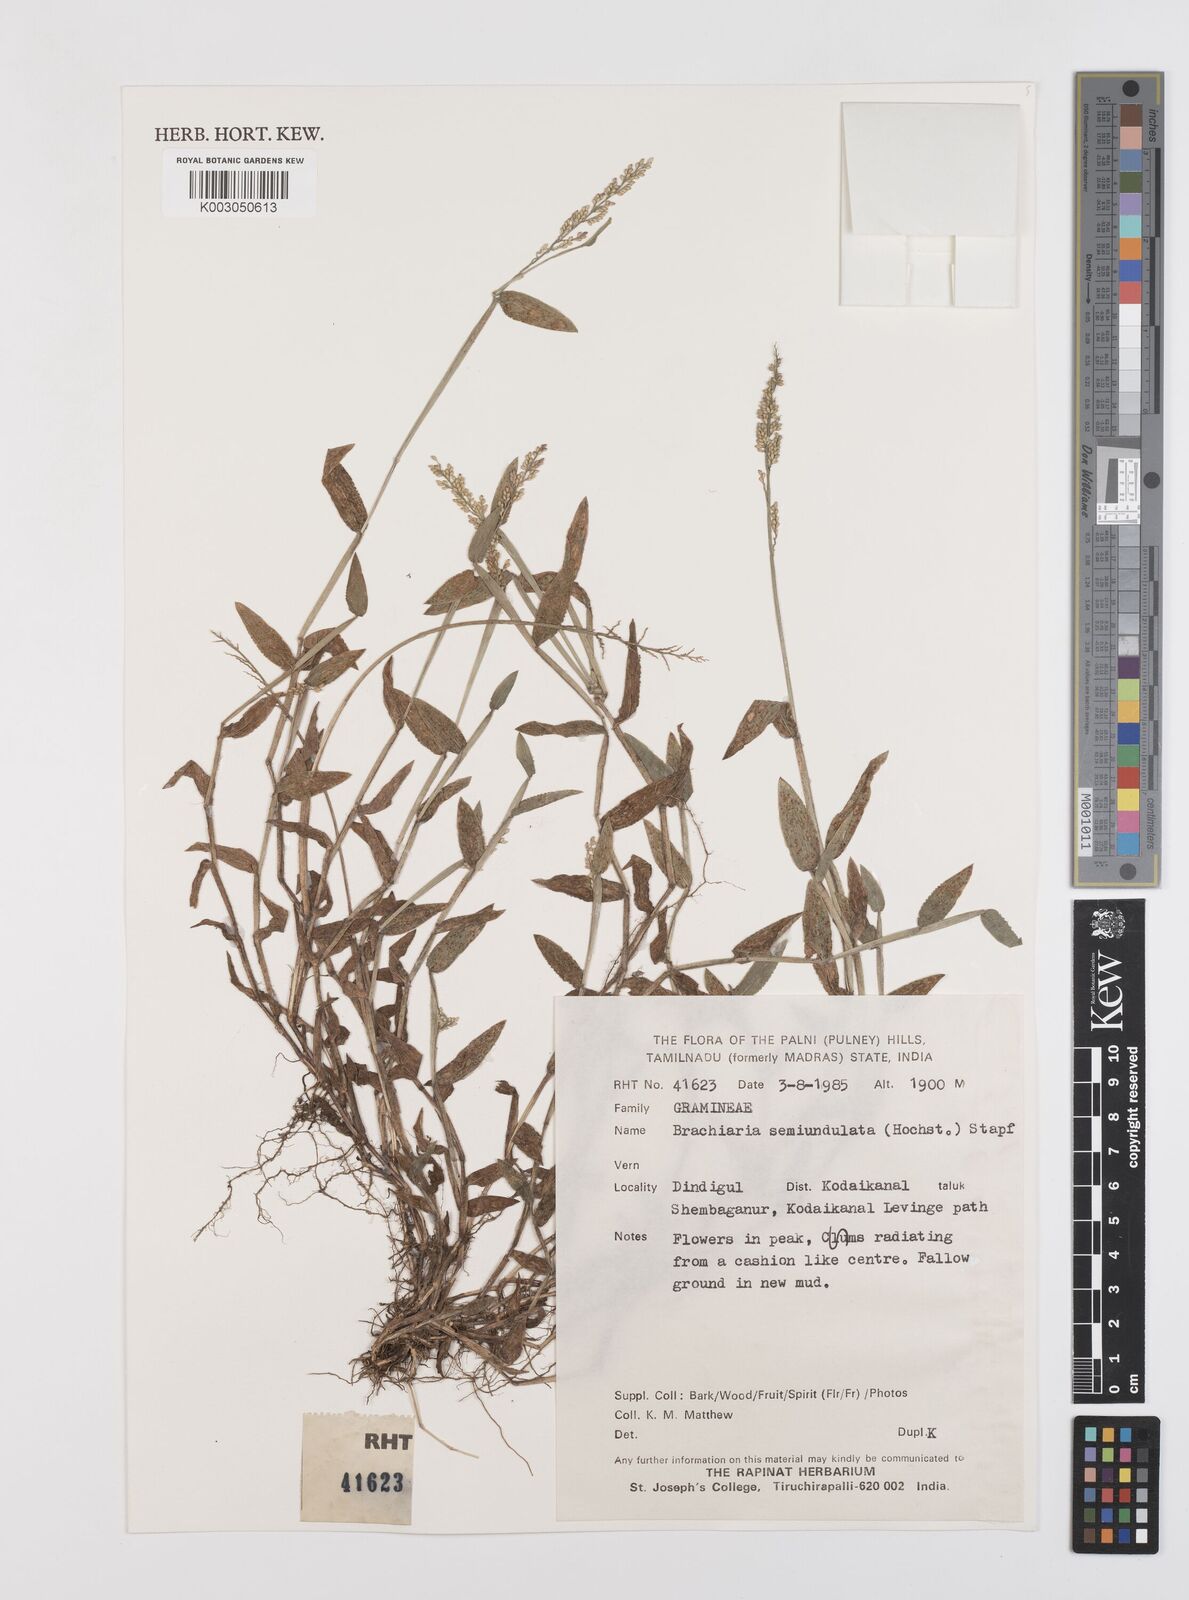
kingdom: Plantae
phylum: Tracheophyta
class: Liliopsida
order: Poales
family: Poaceae
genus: Urochloa
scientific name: Urochloa semiundulata
